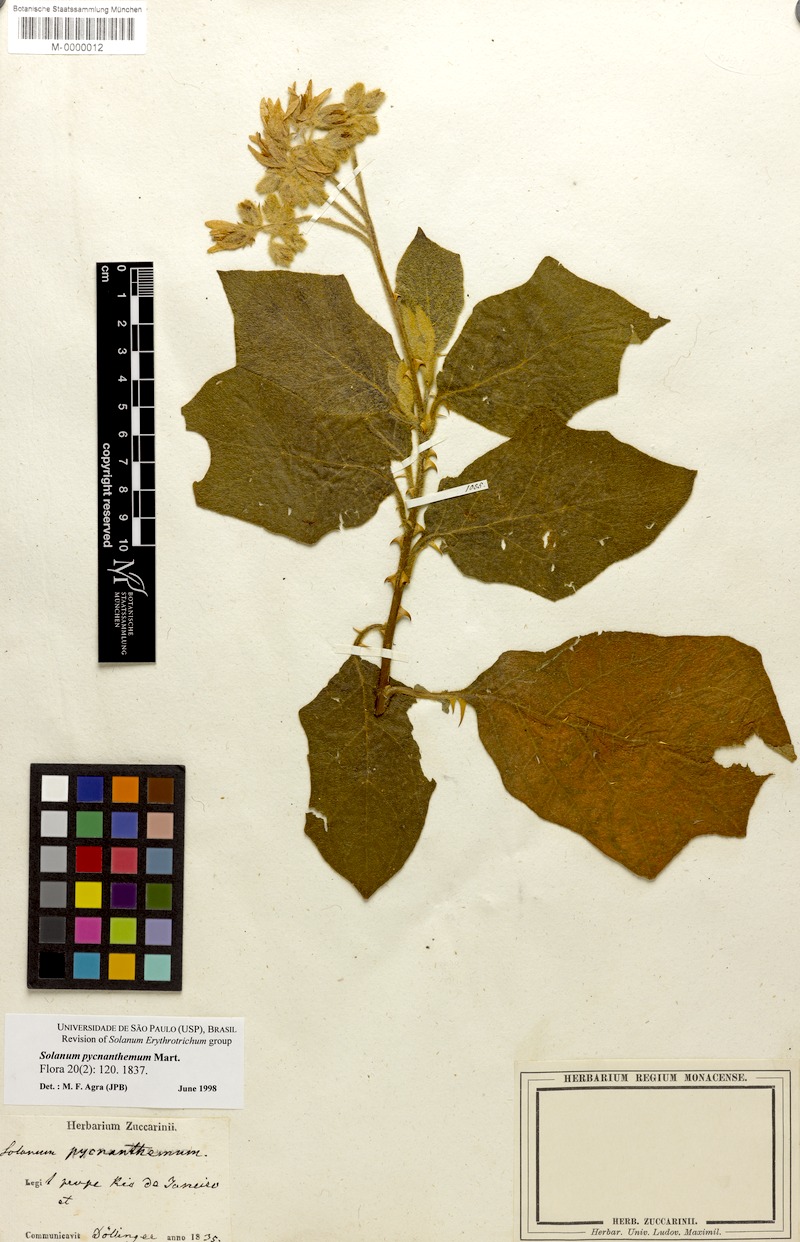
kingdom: Plantae
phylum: Tracheophyta
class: Magnoliopsida
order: Solanales
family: Solanaceae
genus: Solanum
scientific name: Solanum pycnanthemum
